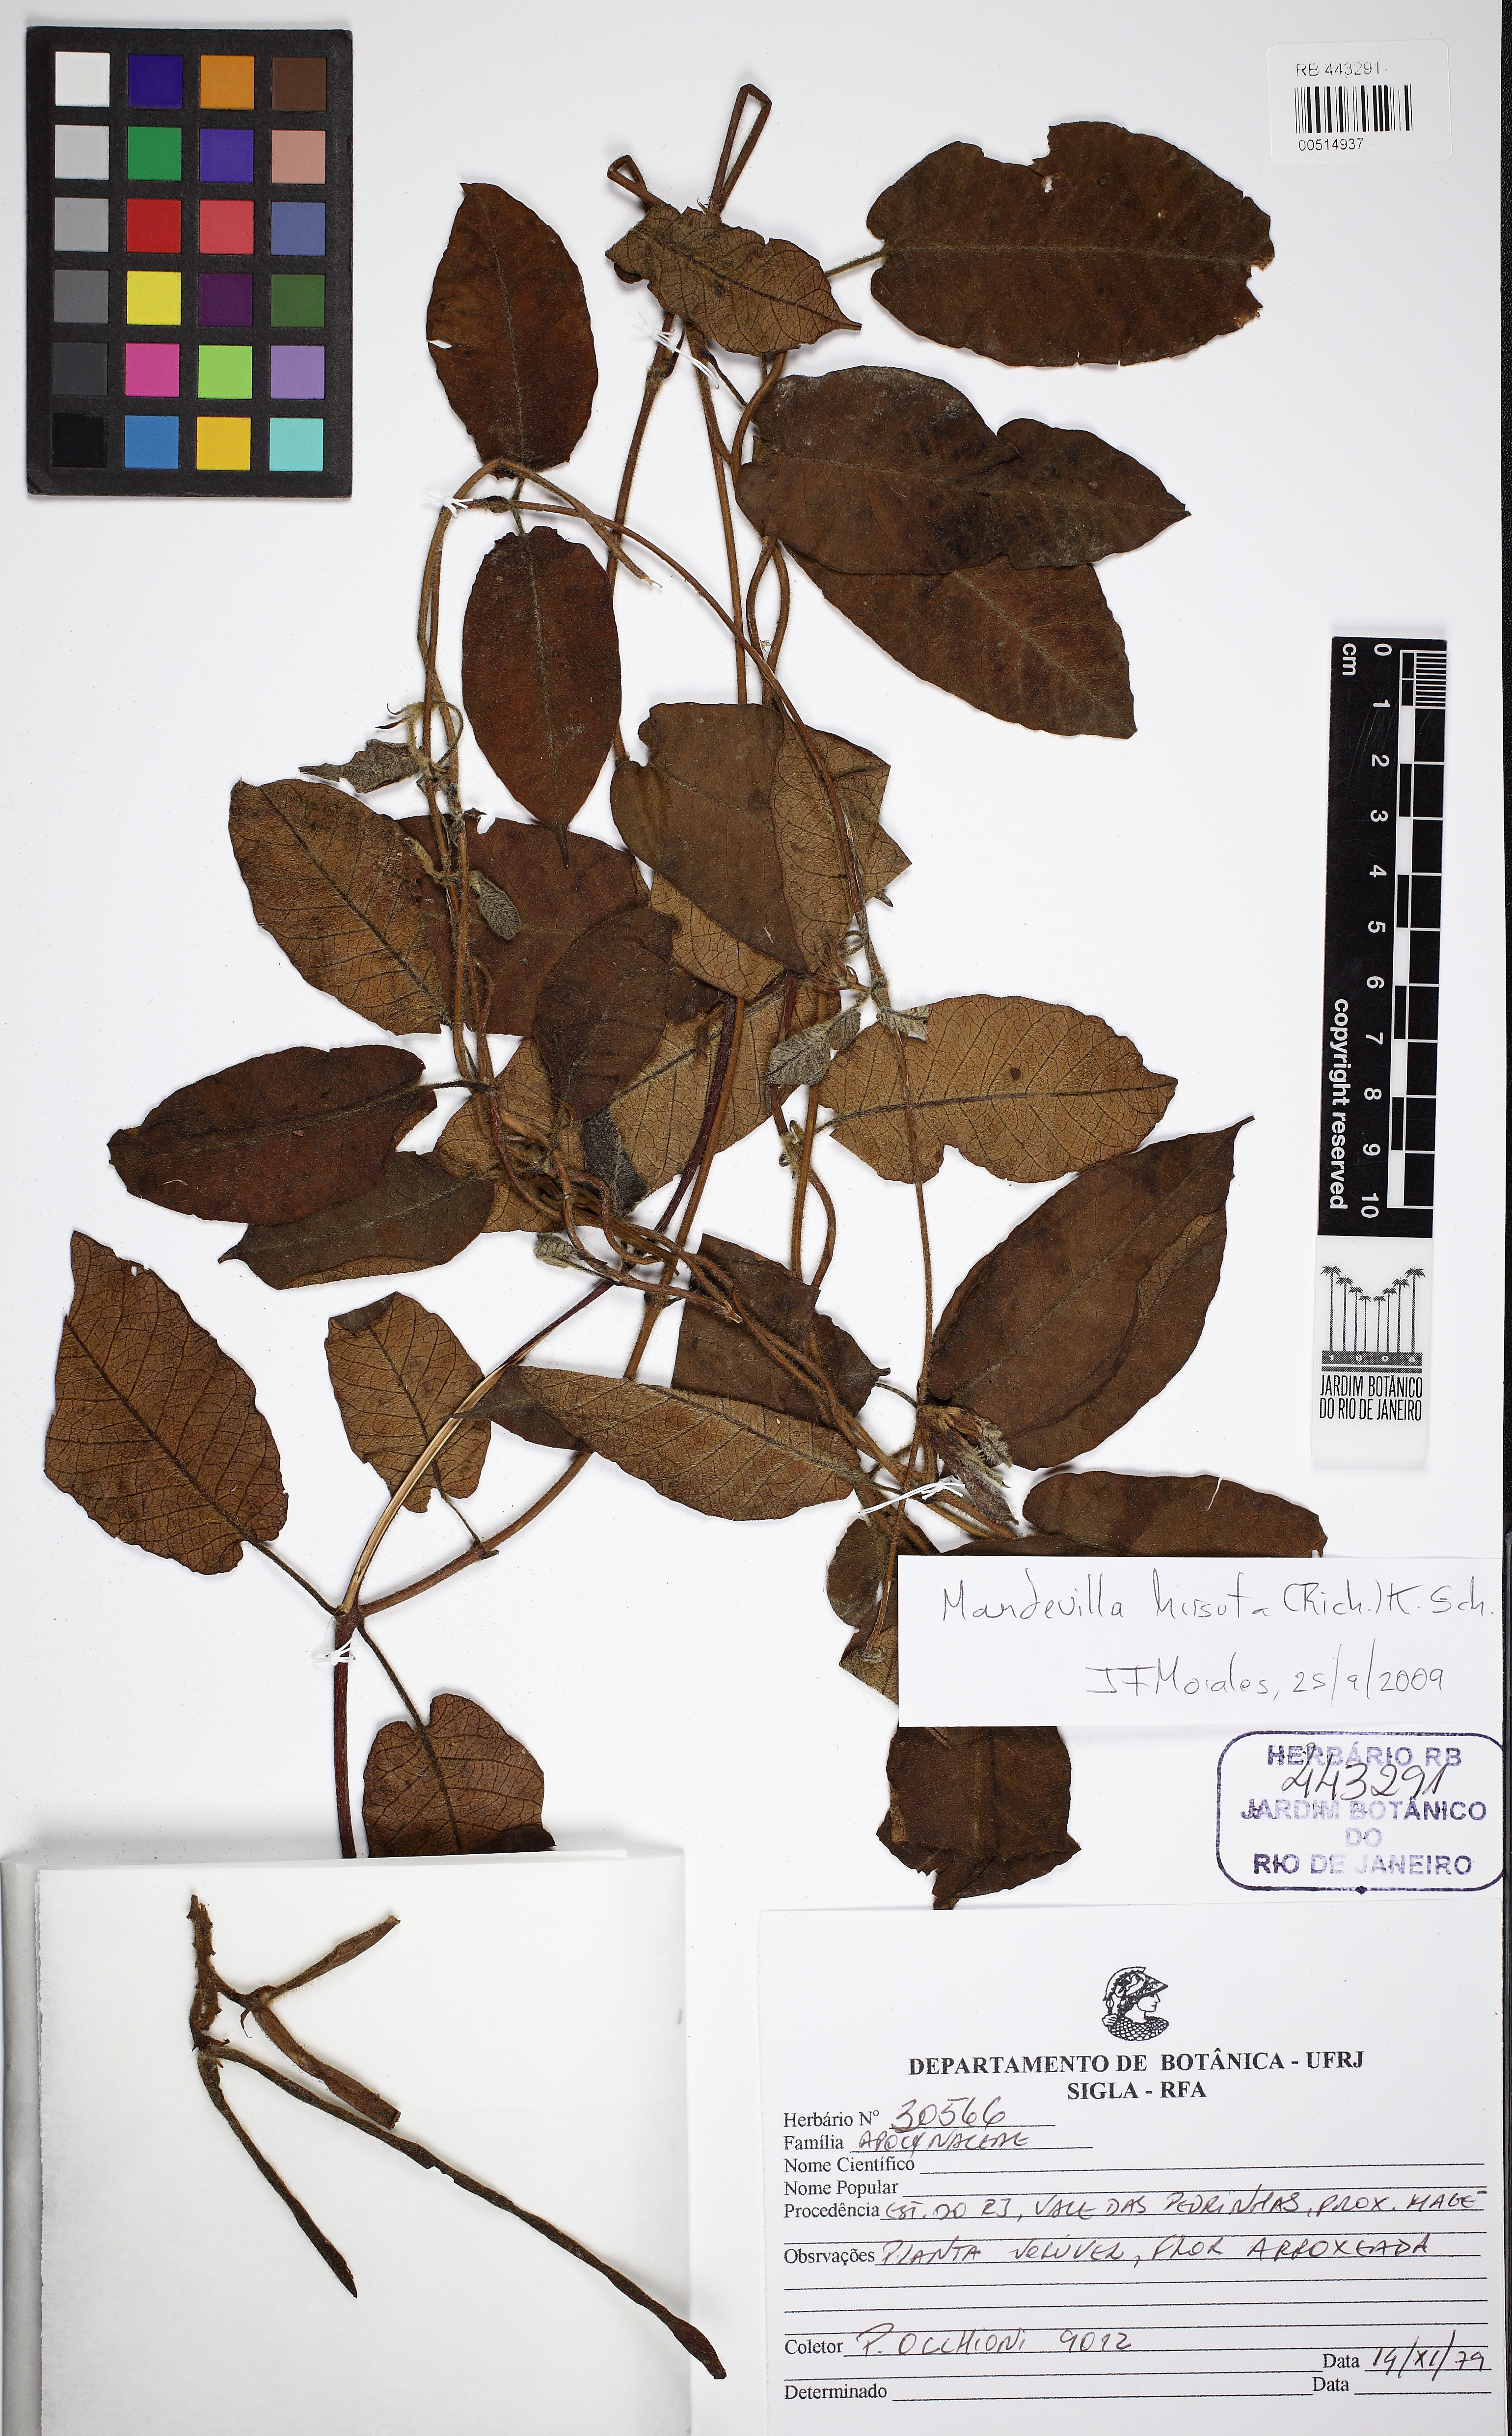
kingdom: Plantae
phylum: Tracheophyta
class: Magnoliopsida
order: Gentianales
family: Apocynaceae
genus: Mandevilla
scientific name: Mandevilla hirsuta
